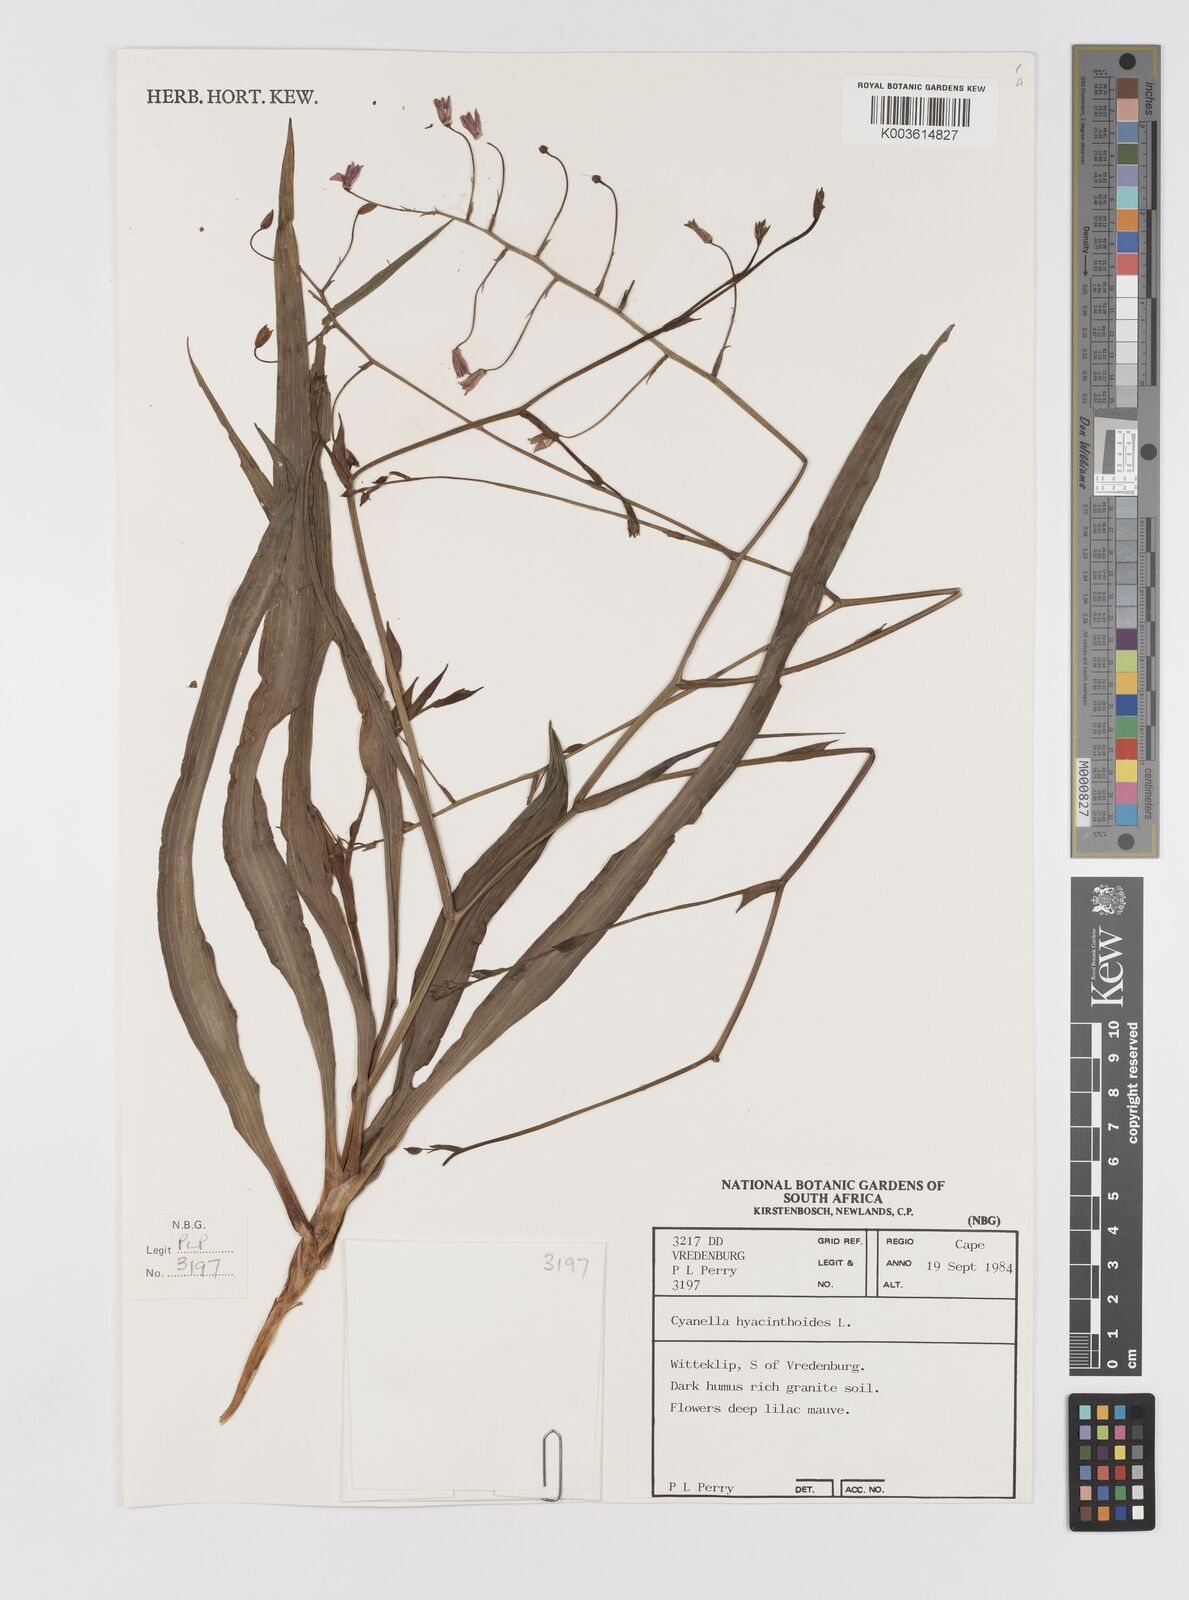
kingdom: Plantae
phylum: Tracheophyta
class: Liliopsida
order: Asparagales
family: Tecophilaeaceae
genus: Cyanella
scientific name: Cyanella hyacinthoides
